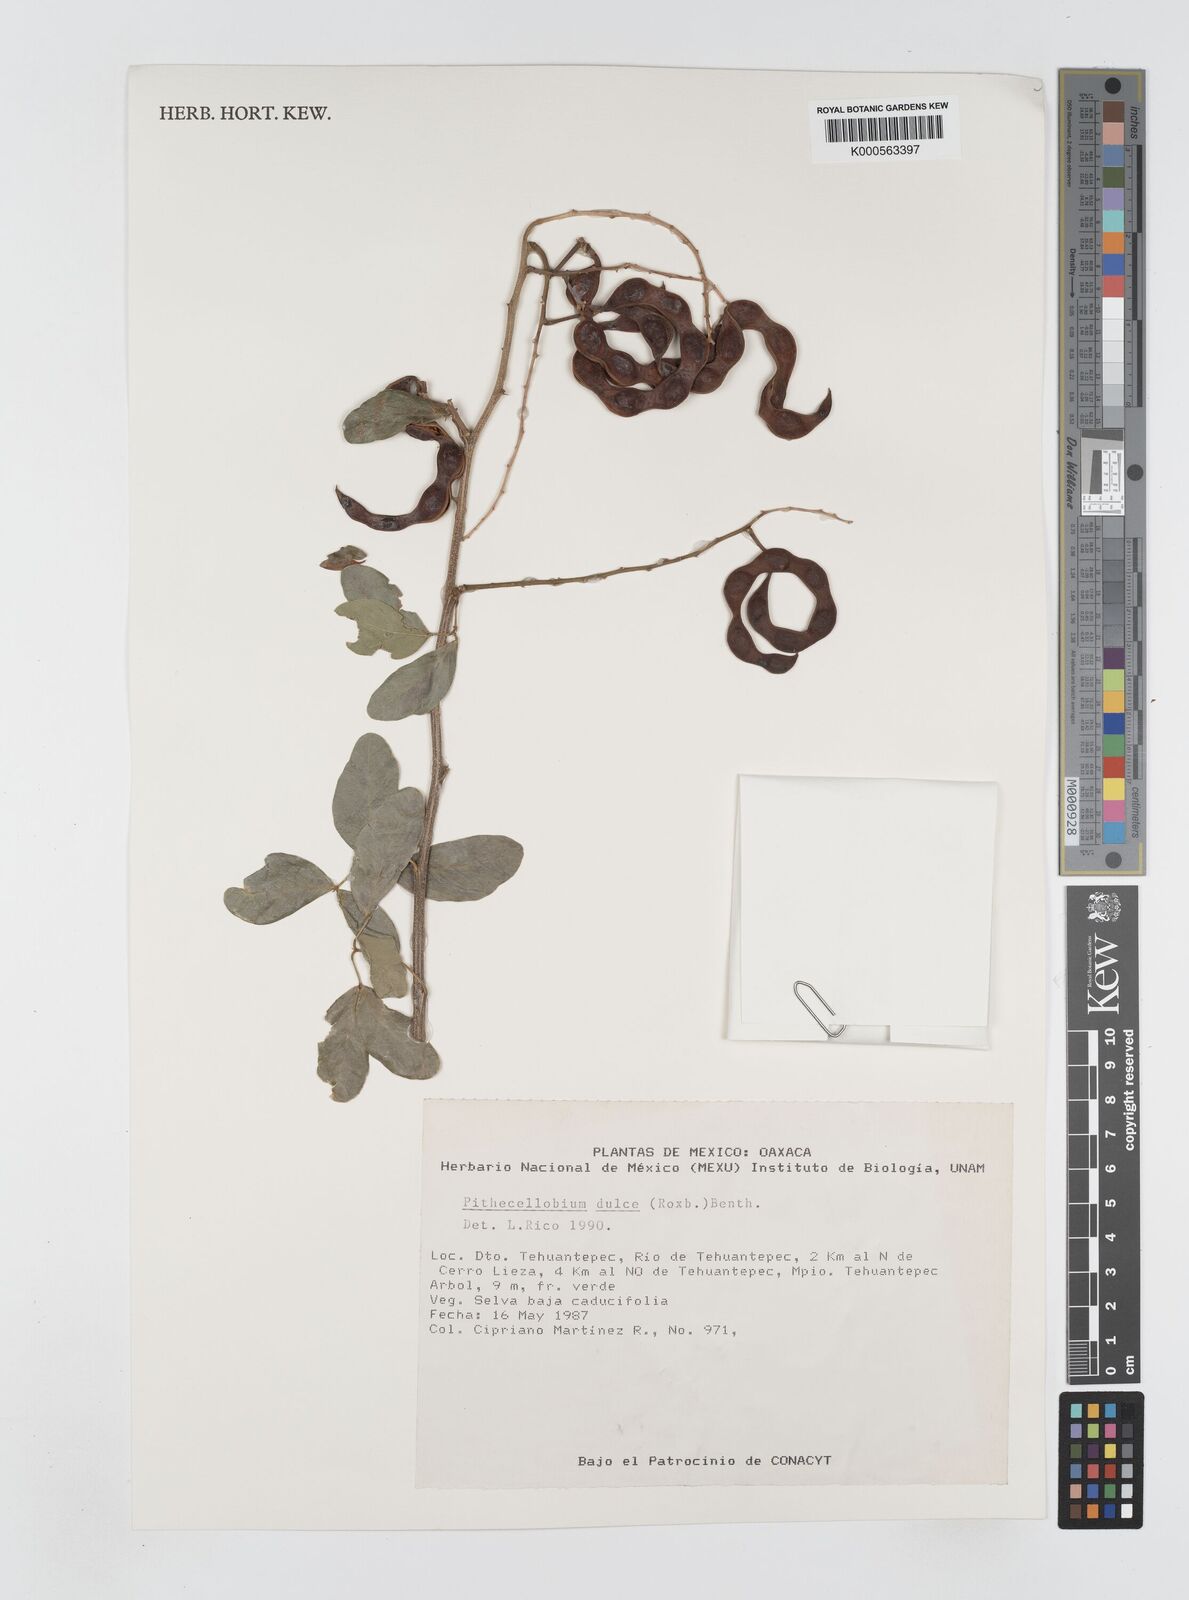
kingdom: Plantae
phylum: Tracheophyta
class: Magnoliopsida
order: Fabales
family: Fabaceae
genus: Pithecellobium
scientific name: Pithecellobium dulce
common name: Monkeypod
